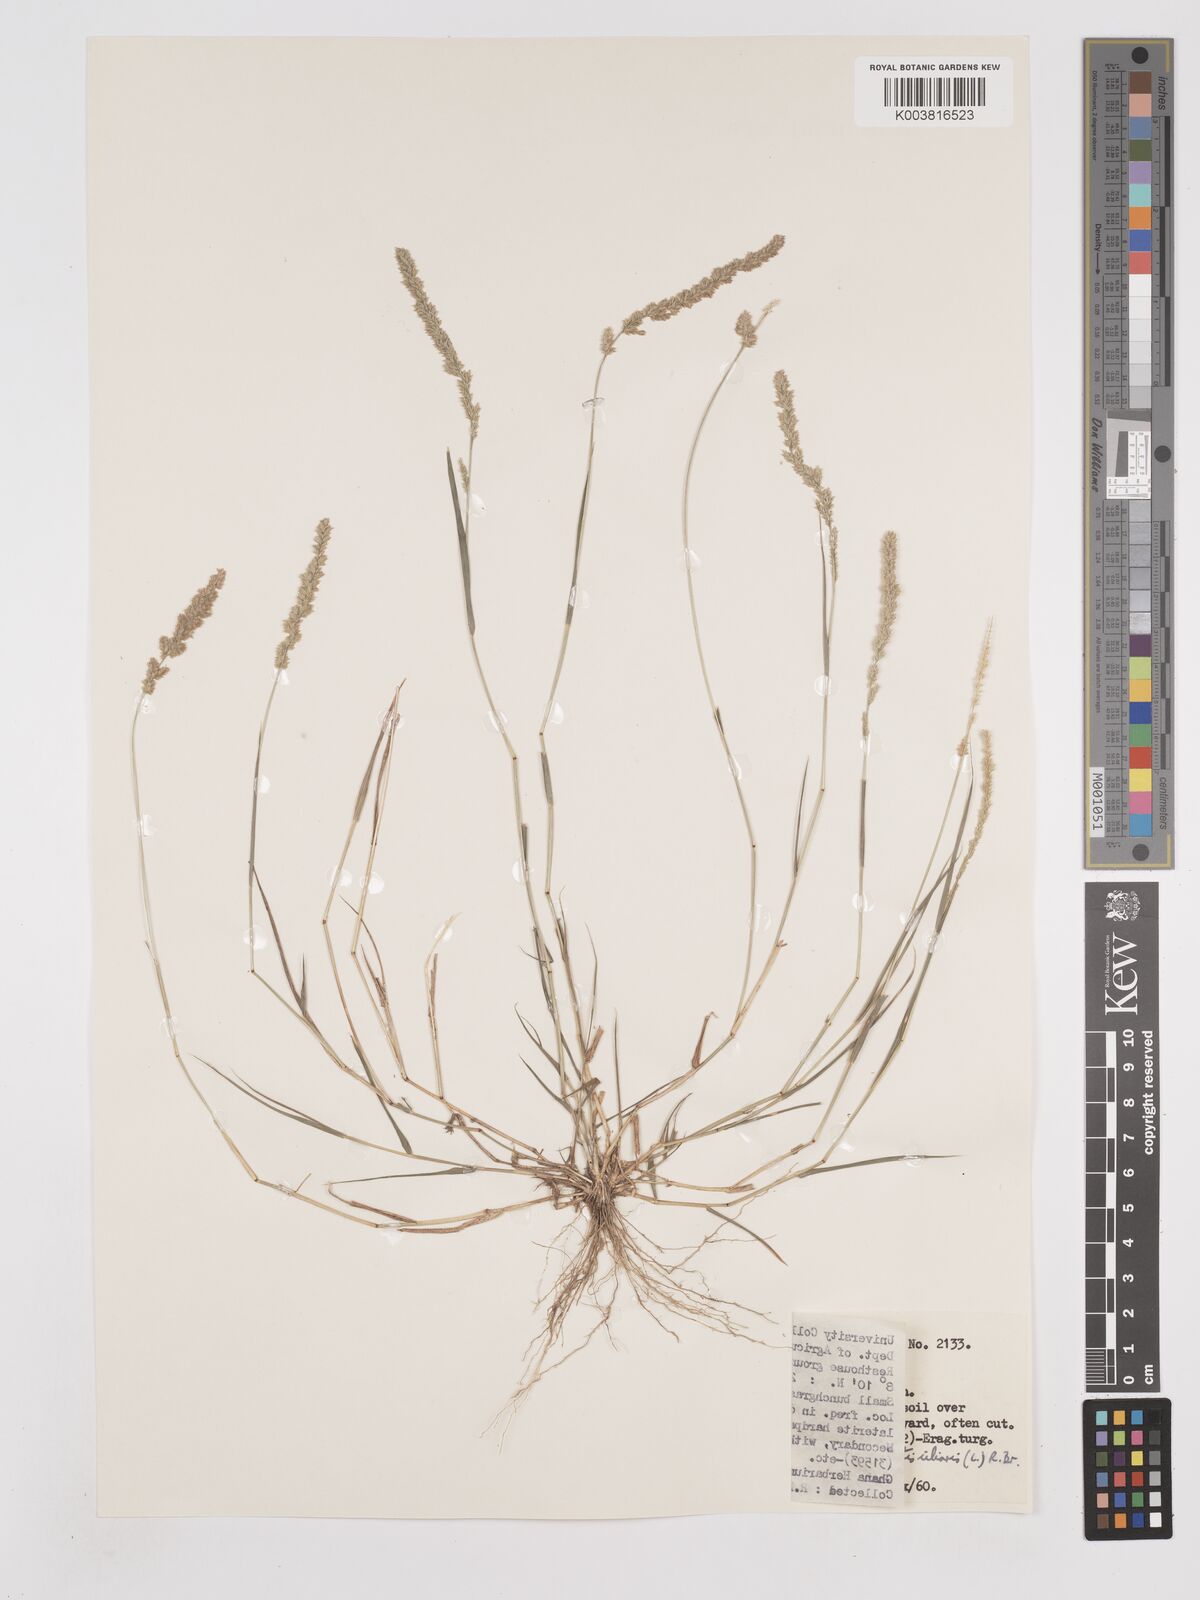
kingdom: Plantae
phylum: Tracheophyta
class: Liliopsida
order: Poales
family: Poaceae
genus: Eragrostis
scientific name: Eragrostis ciliaris
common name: Gophertail lovegrass
